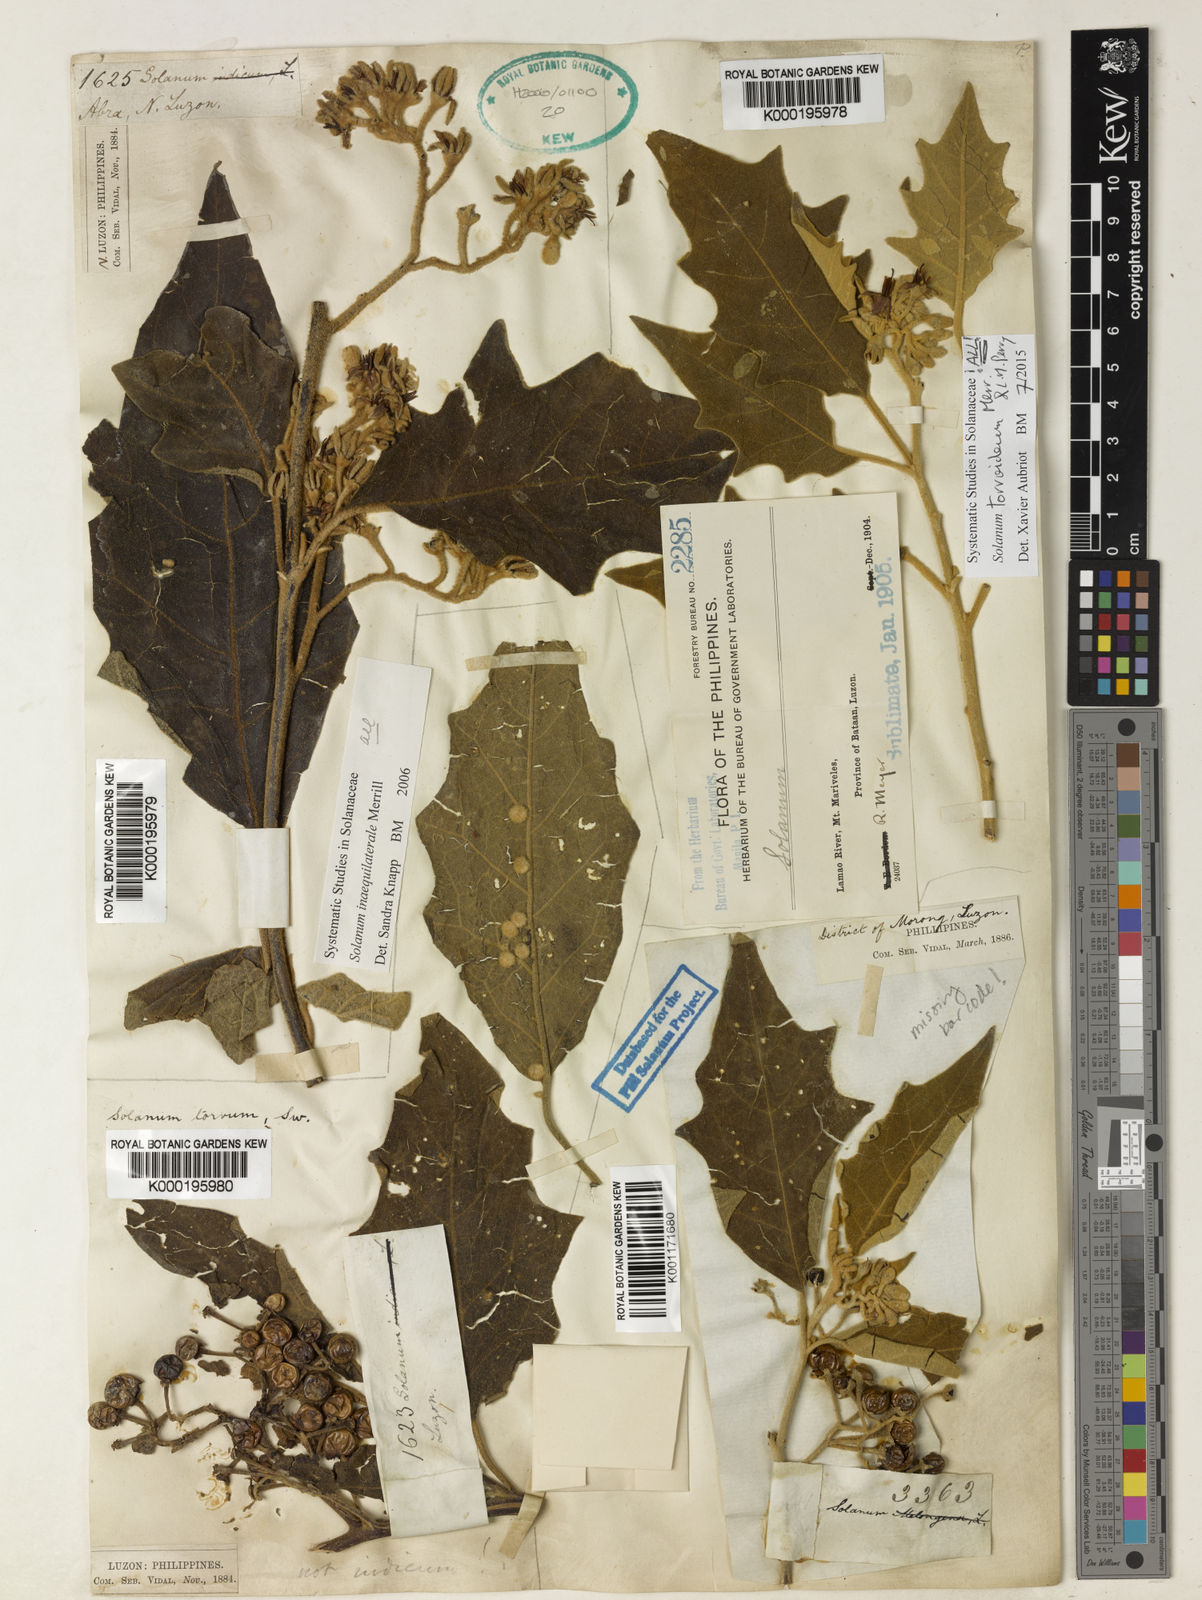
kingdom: Plantae
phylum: Tracheophyta
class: Magnoliopsida
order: Solanales
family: Solanaceae
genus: Solanum
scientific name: Solanum torvoideum
